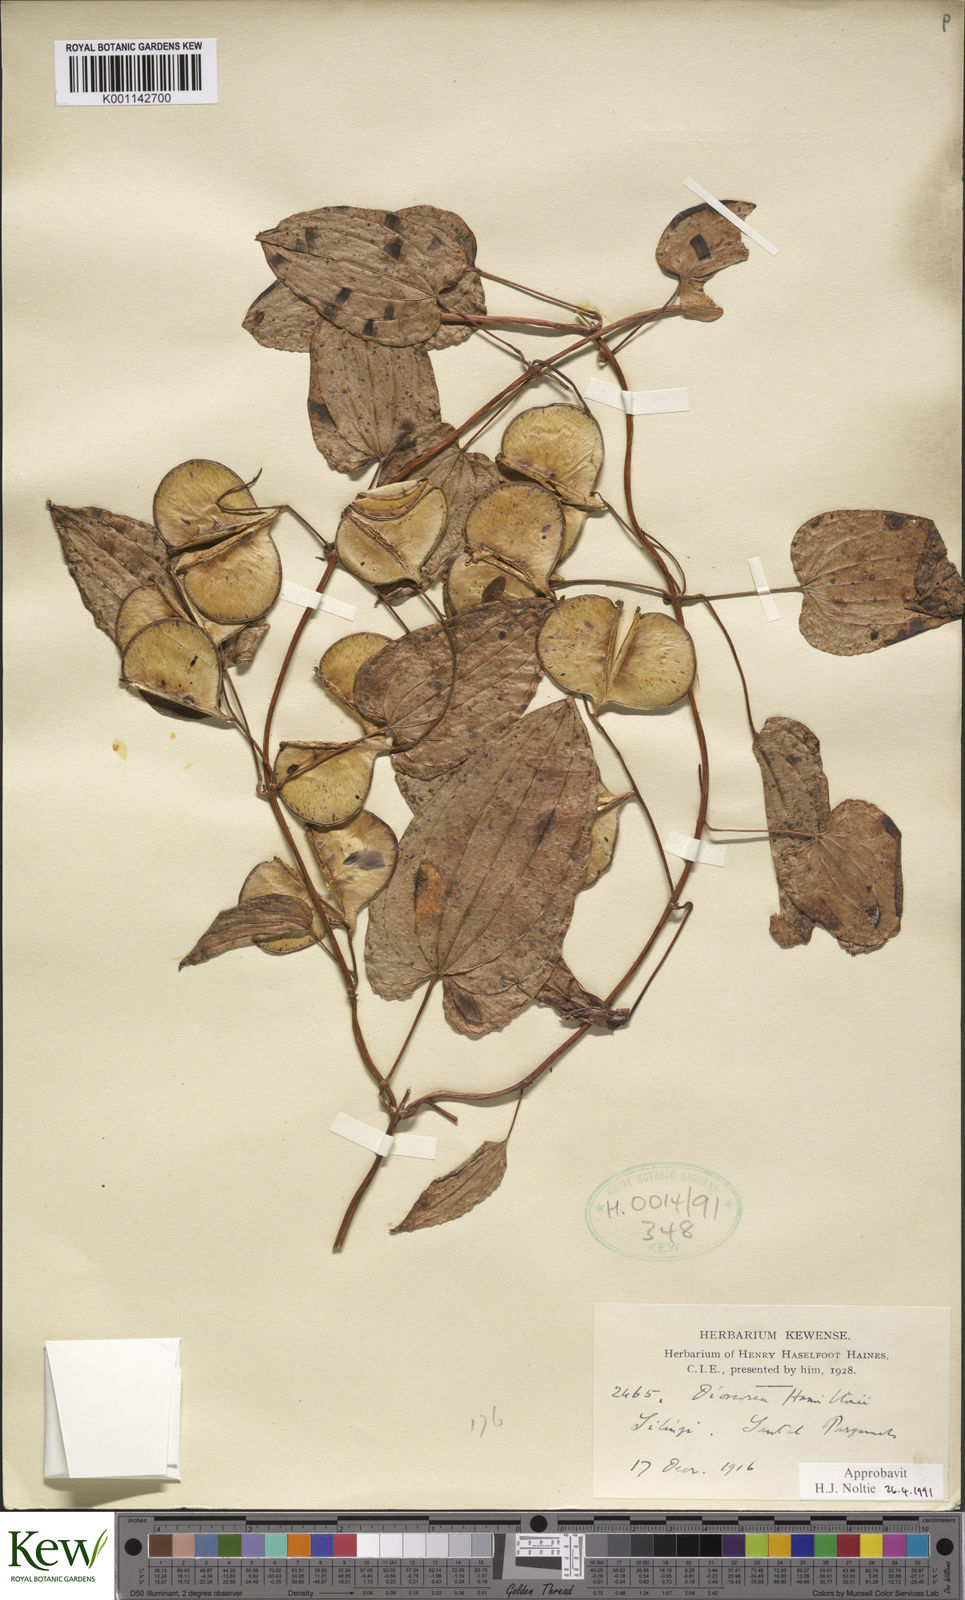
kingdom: Plantae
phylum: Tracheophyta
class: Liliopsida
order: Dioscoreales
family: Dioscoreaceae
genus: Dioscorea
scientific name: Dioscorea hamiltonii
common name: Mountain yam
